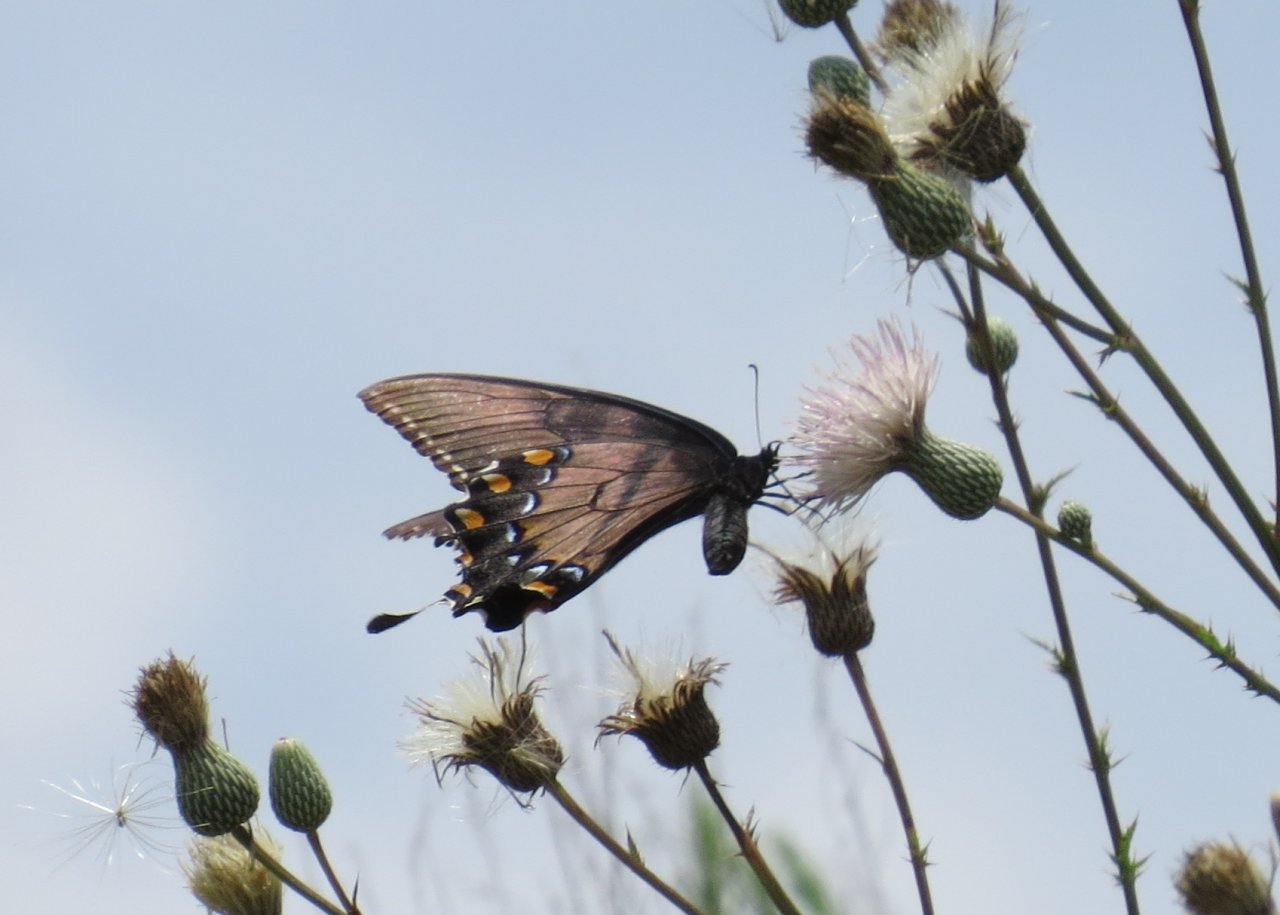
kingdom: Animalia
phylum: Arthropoda
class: Insecta
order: Lepidoptera
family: Papilionidae
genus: Pterourus
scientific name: Pterourus glaucus
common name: Eastern Tiger Swallowtail
